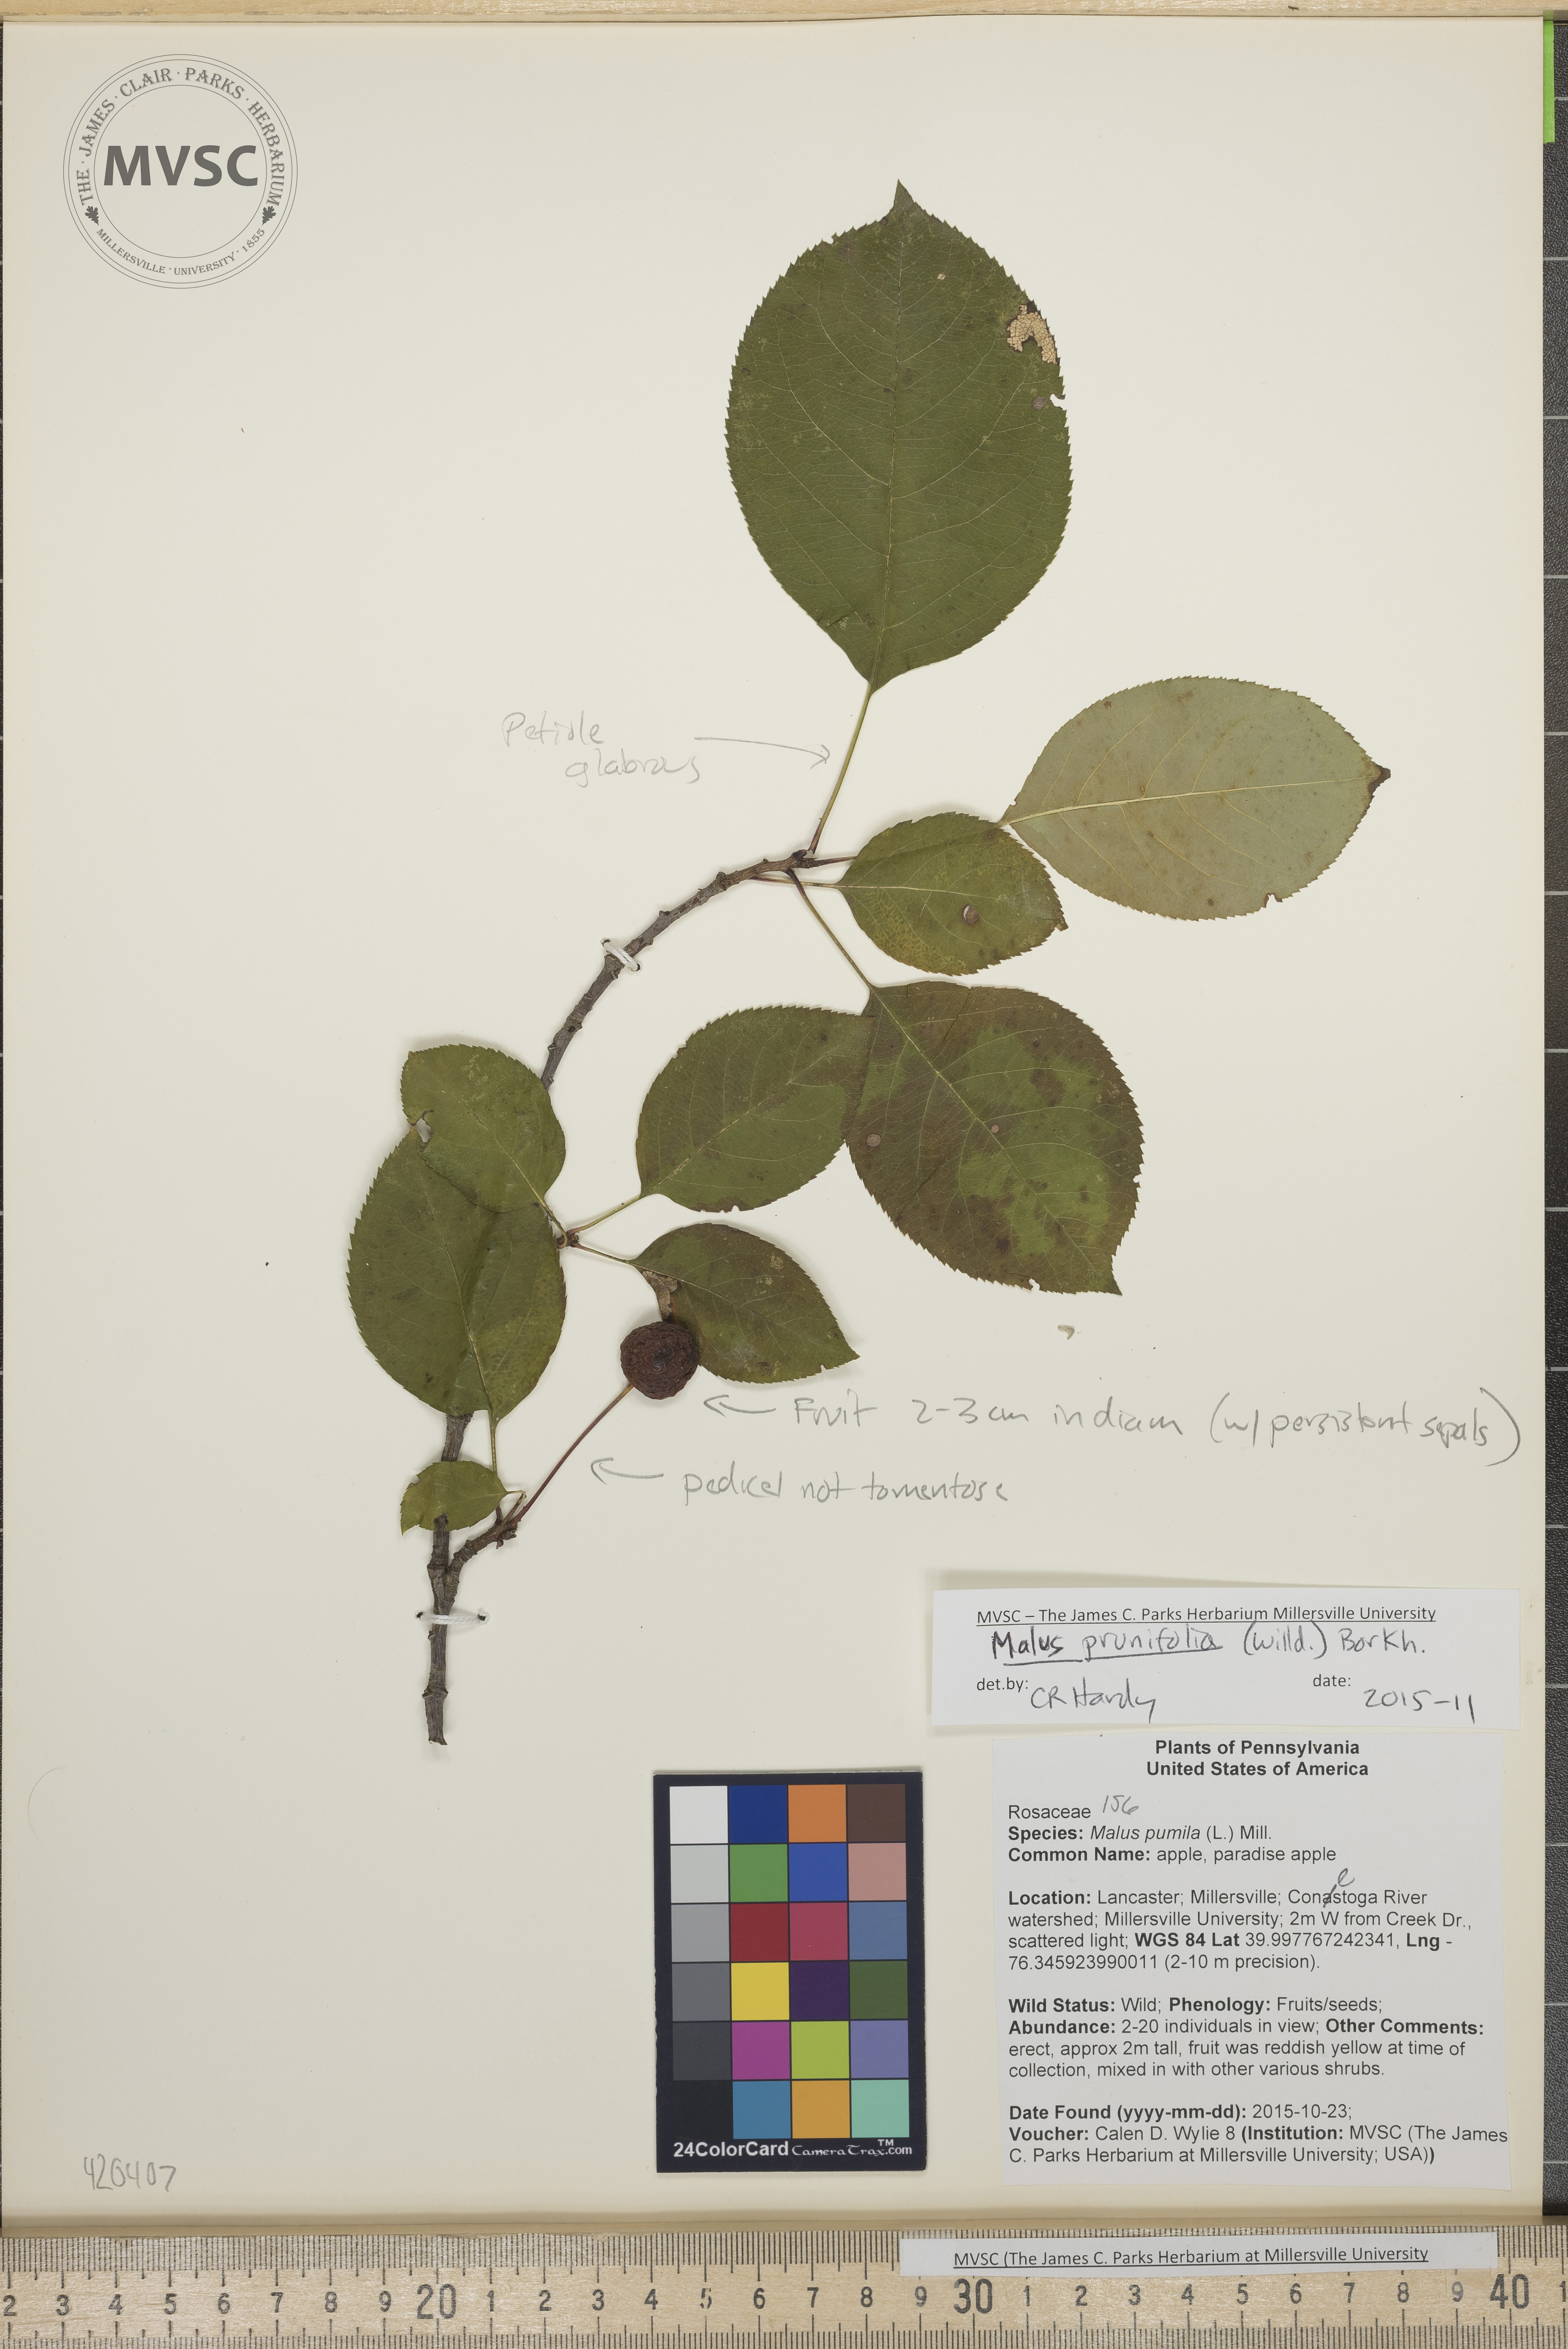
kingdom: Plantae
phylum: Tracheophyta
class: Magnoliopsida
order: Rosales
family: Rosaceae
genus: Malus
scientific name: Malus prunifolia
